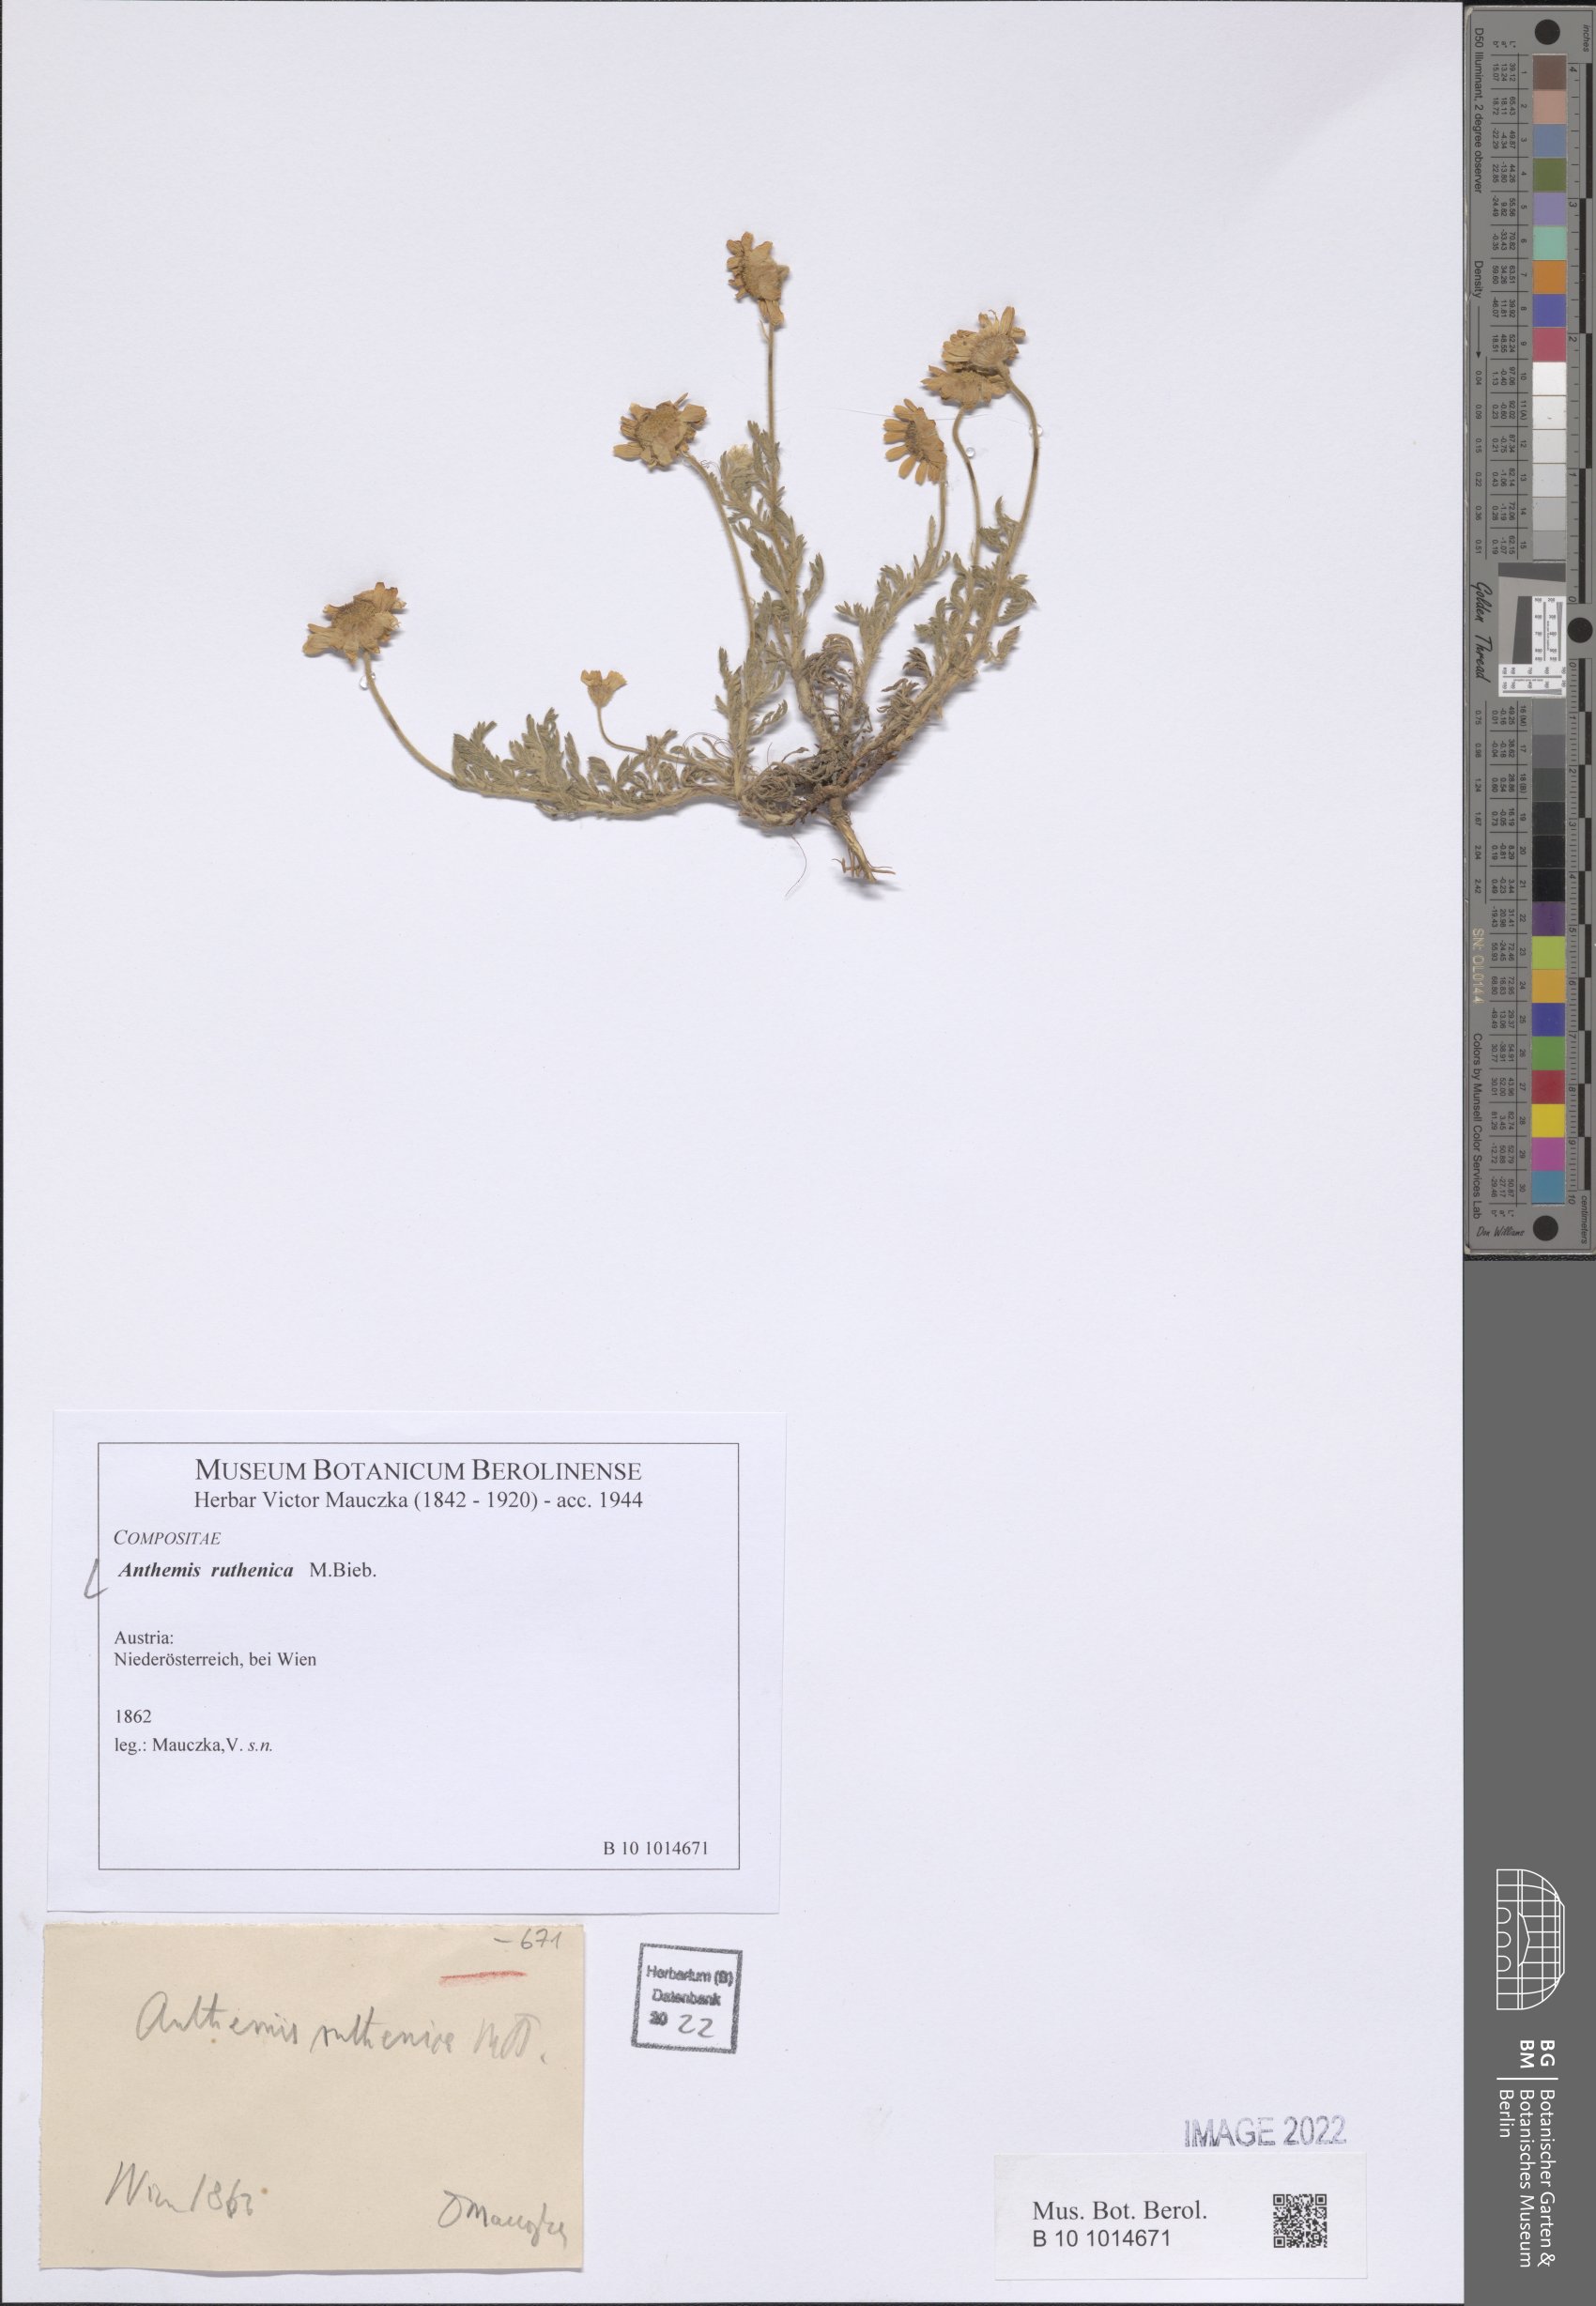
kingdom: Plantae
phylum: Tracheophyta
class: Magnoliopsida
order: Asterales
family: Asteraceae
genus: Anthemis
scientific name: Anthemis ruthenica
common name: Eastern chamomile
